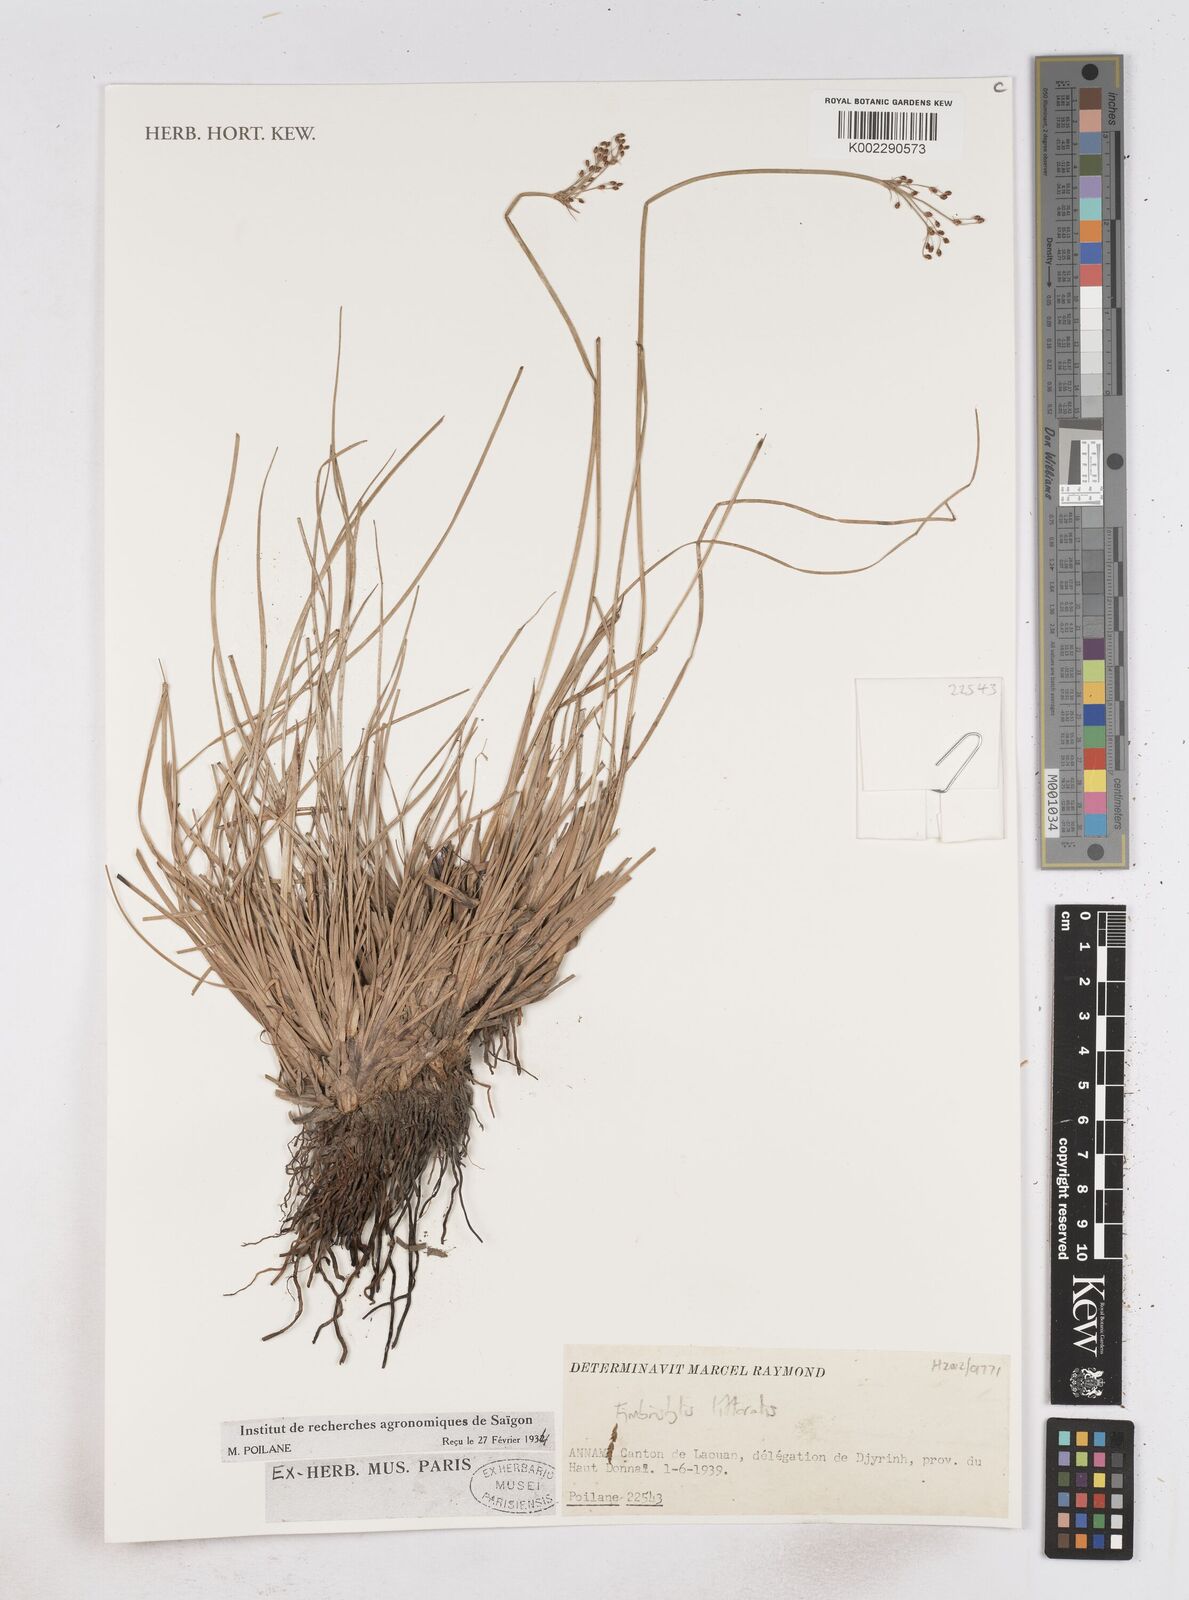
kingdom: Plantae
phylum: Tracheophyta
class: Liliopsida
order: Poales
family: Cyperaceae
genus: Fimbristylis
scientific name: Fimbristylis littoralis
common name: Fimbry
